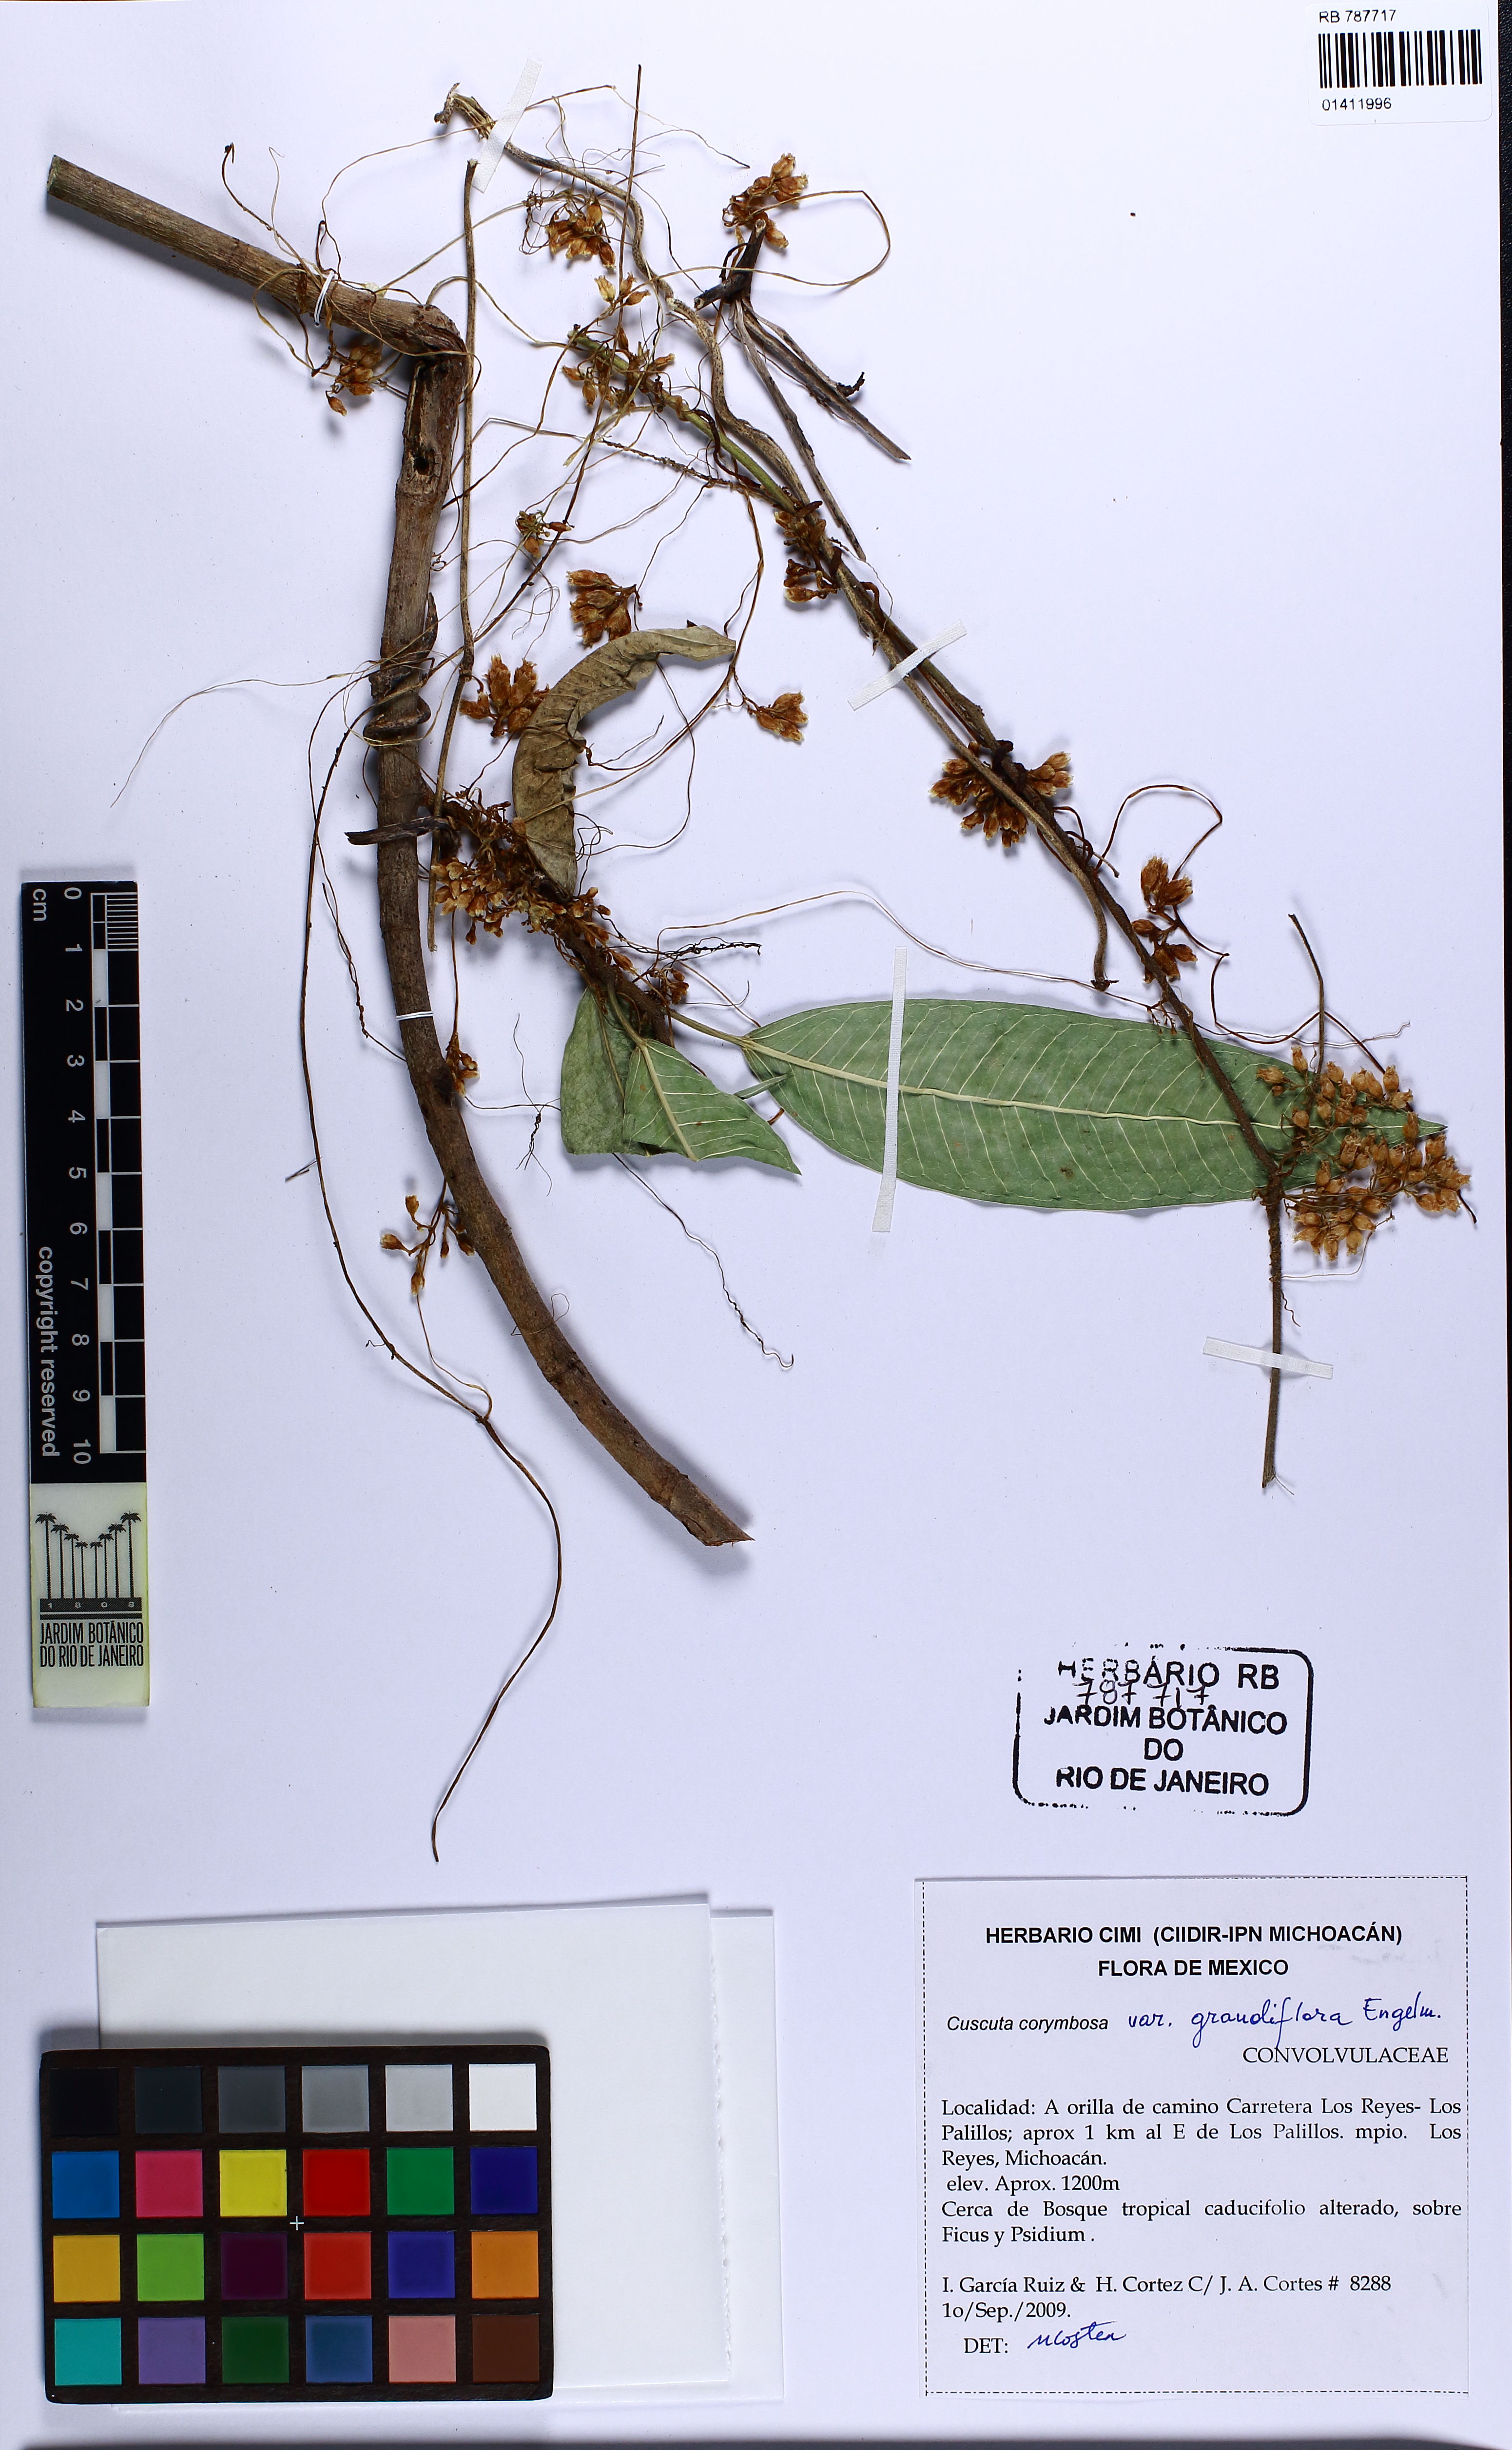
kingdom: Plantae
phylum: Tracheophyta
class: Magnoliopsida
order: Solanales
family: Convolvulaceae
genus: Cuscuta
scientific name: Cuscuta corymbosa
